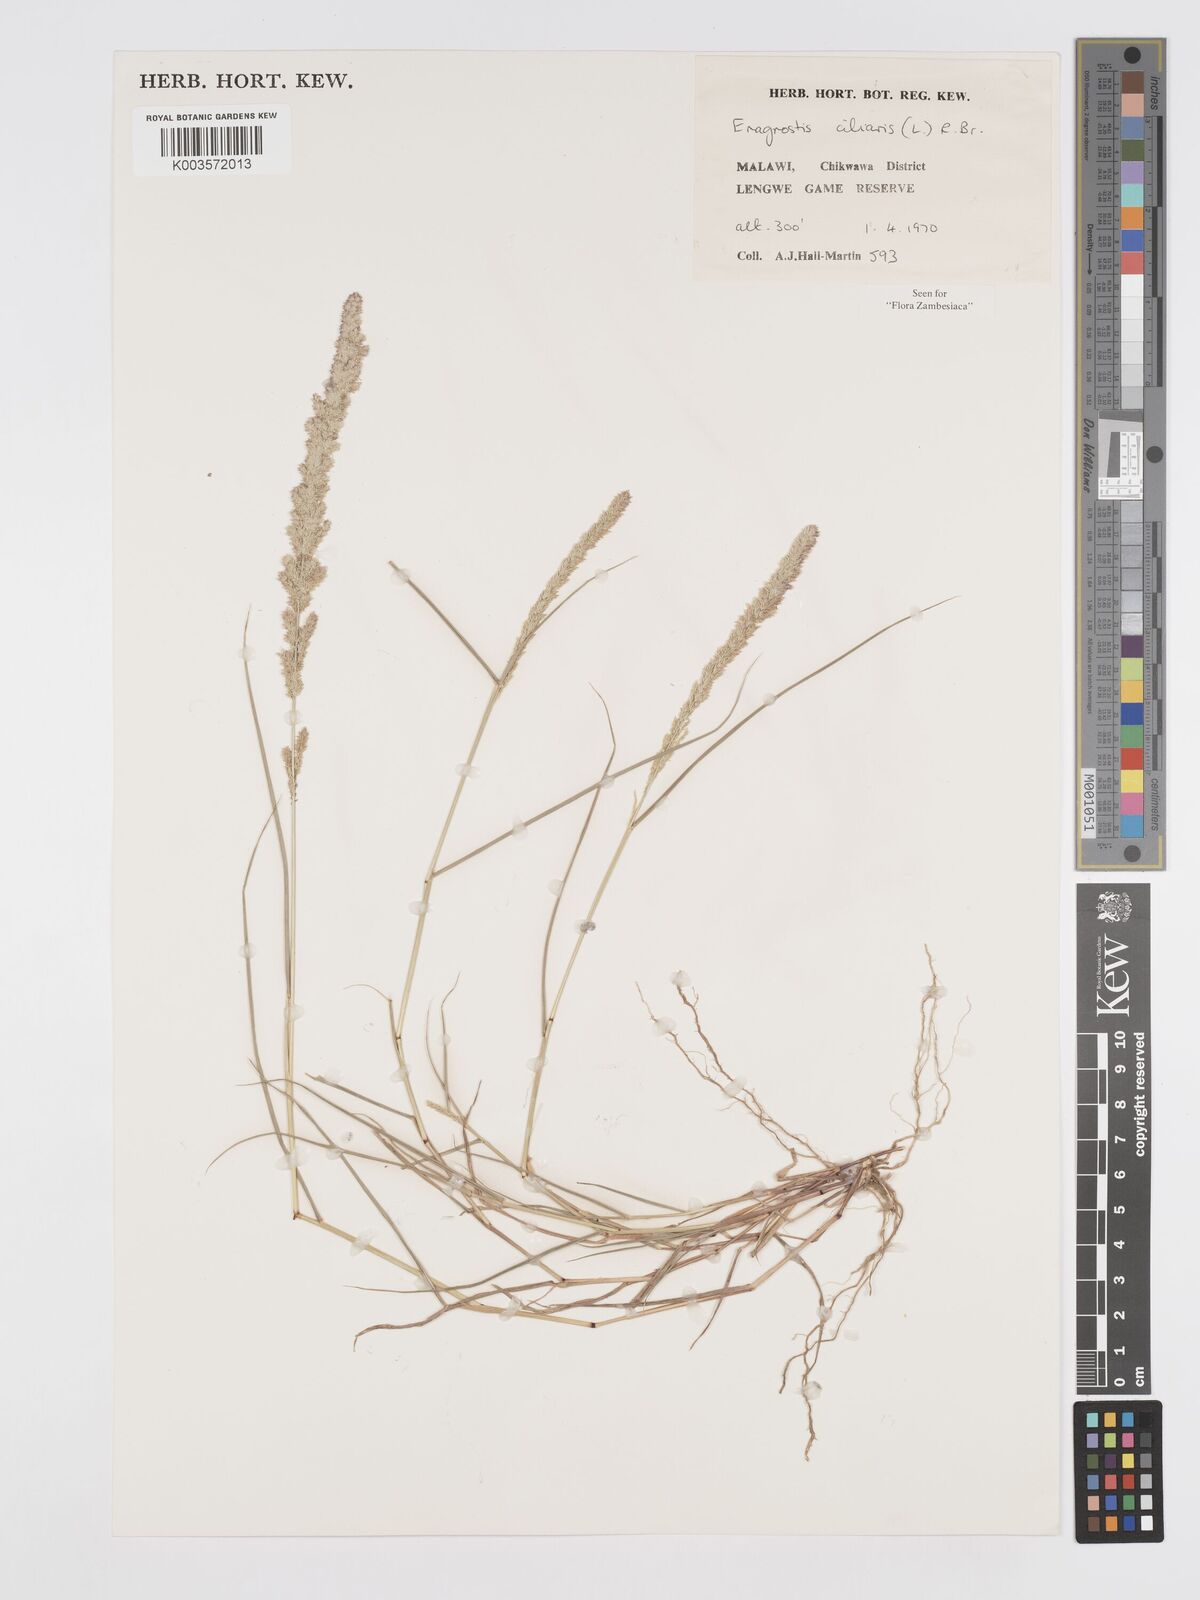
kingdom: Plantae
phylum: Tracheophyta
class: Liliopsida
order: Poales
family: Poaceae
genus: Eragrostis
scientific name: Eragrostis ciliaris
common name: Gophertail lovegrass
